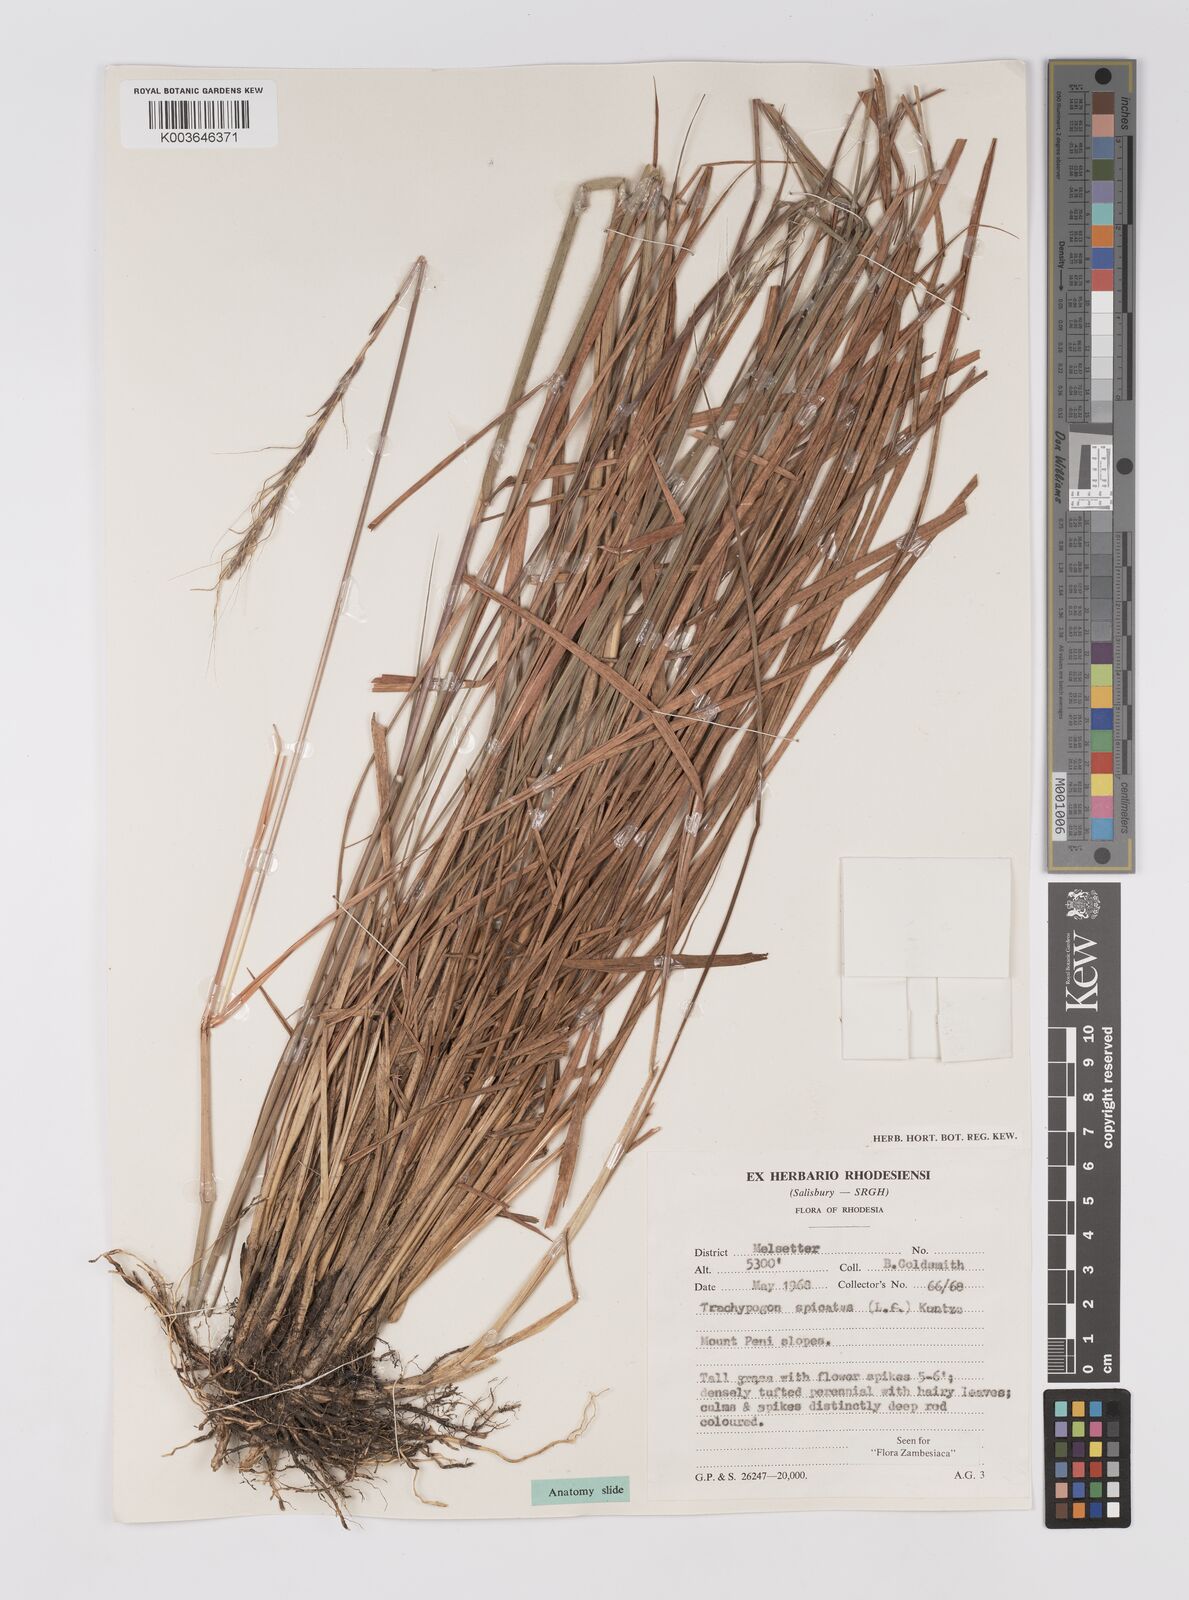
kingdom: Plantae
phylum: Tracheophyta
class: Liliopsida
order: Poales
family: Poaceae
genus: Trachypogon
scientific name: Trachypogon spicatus
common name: Crinkle-awn
